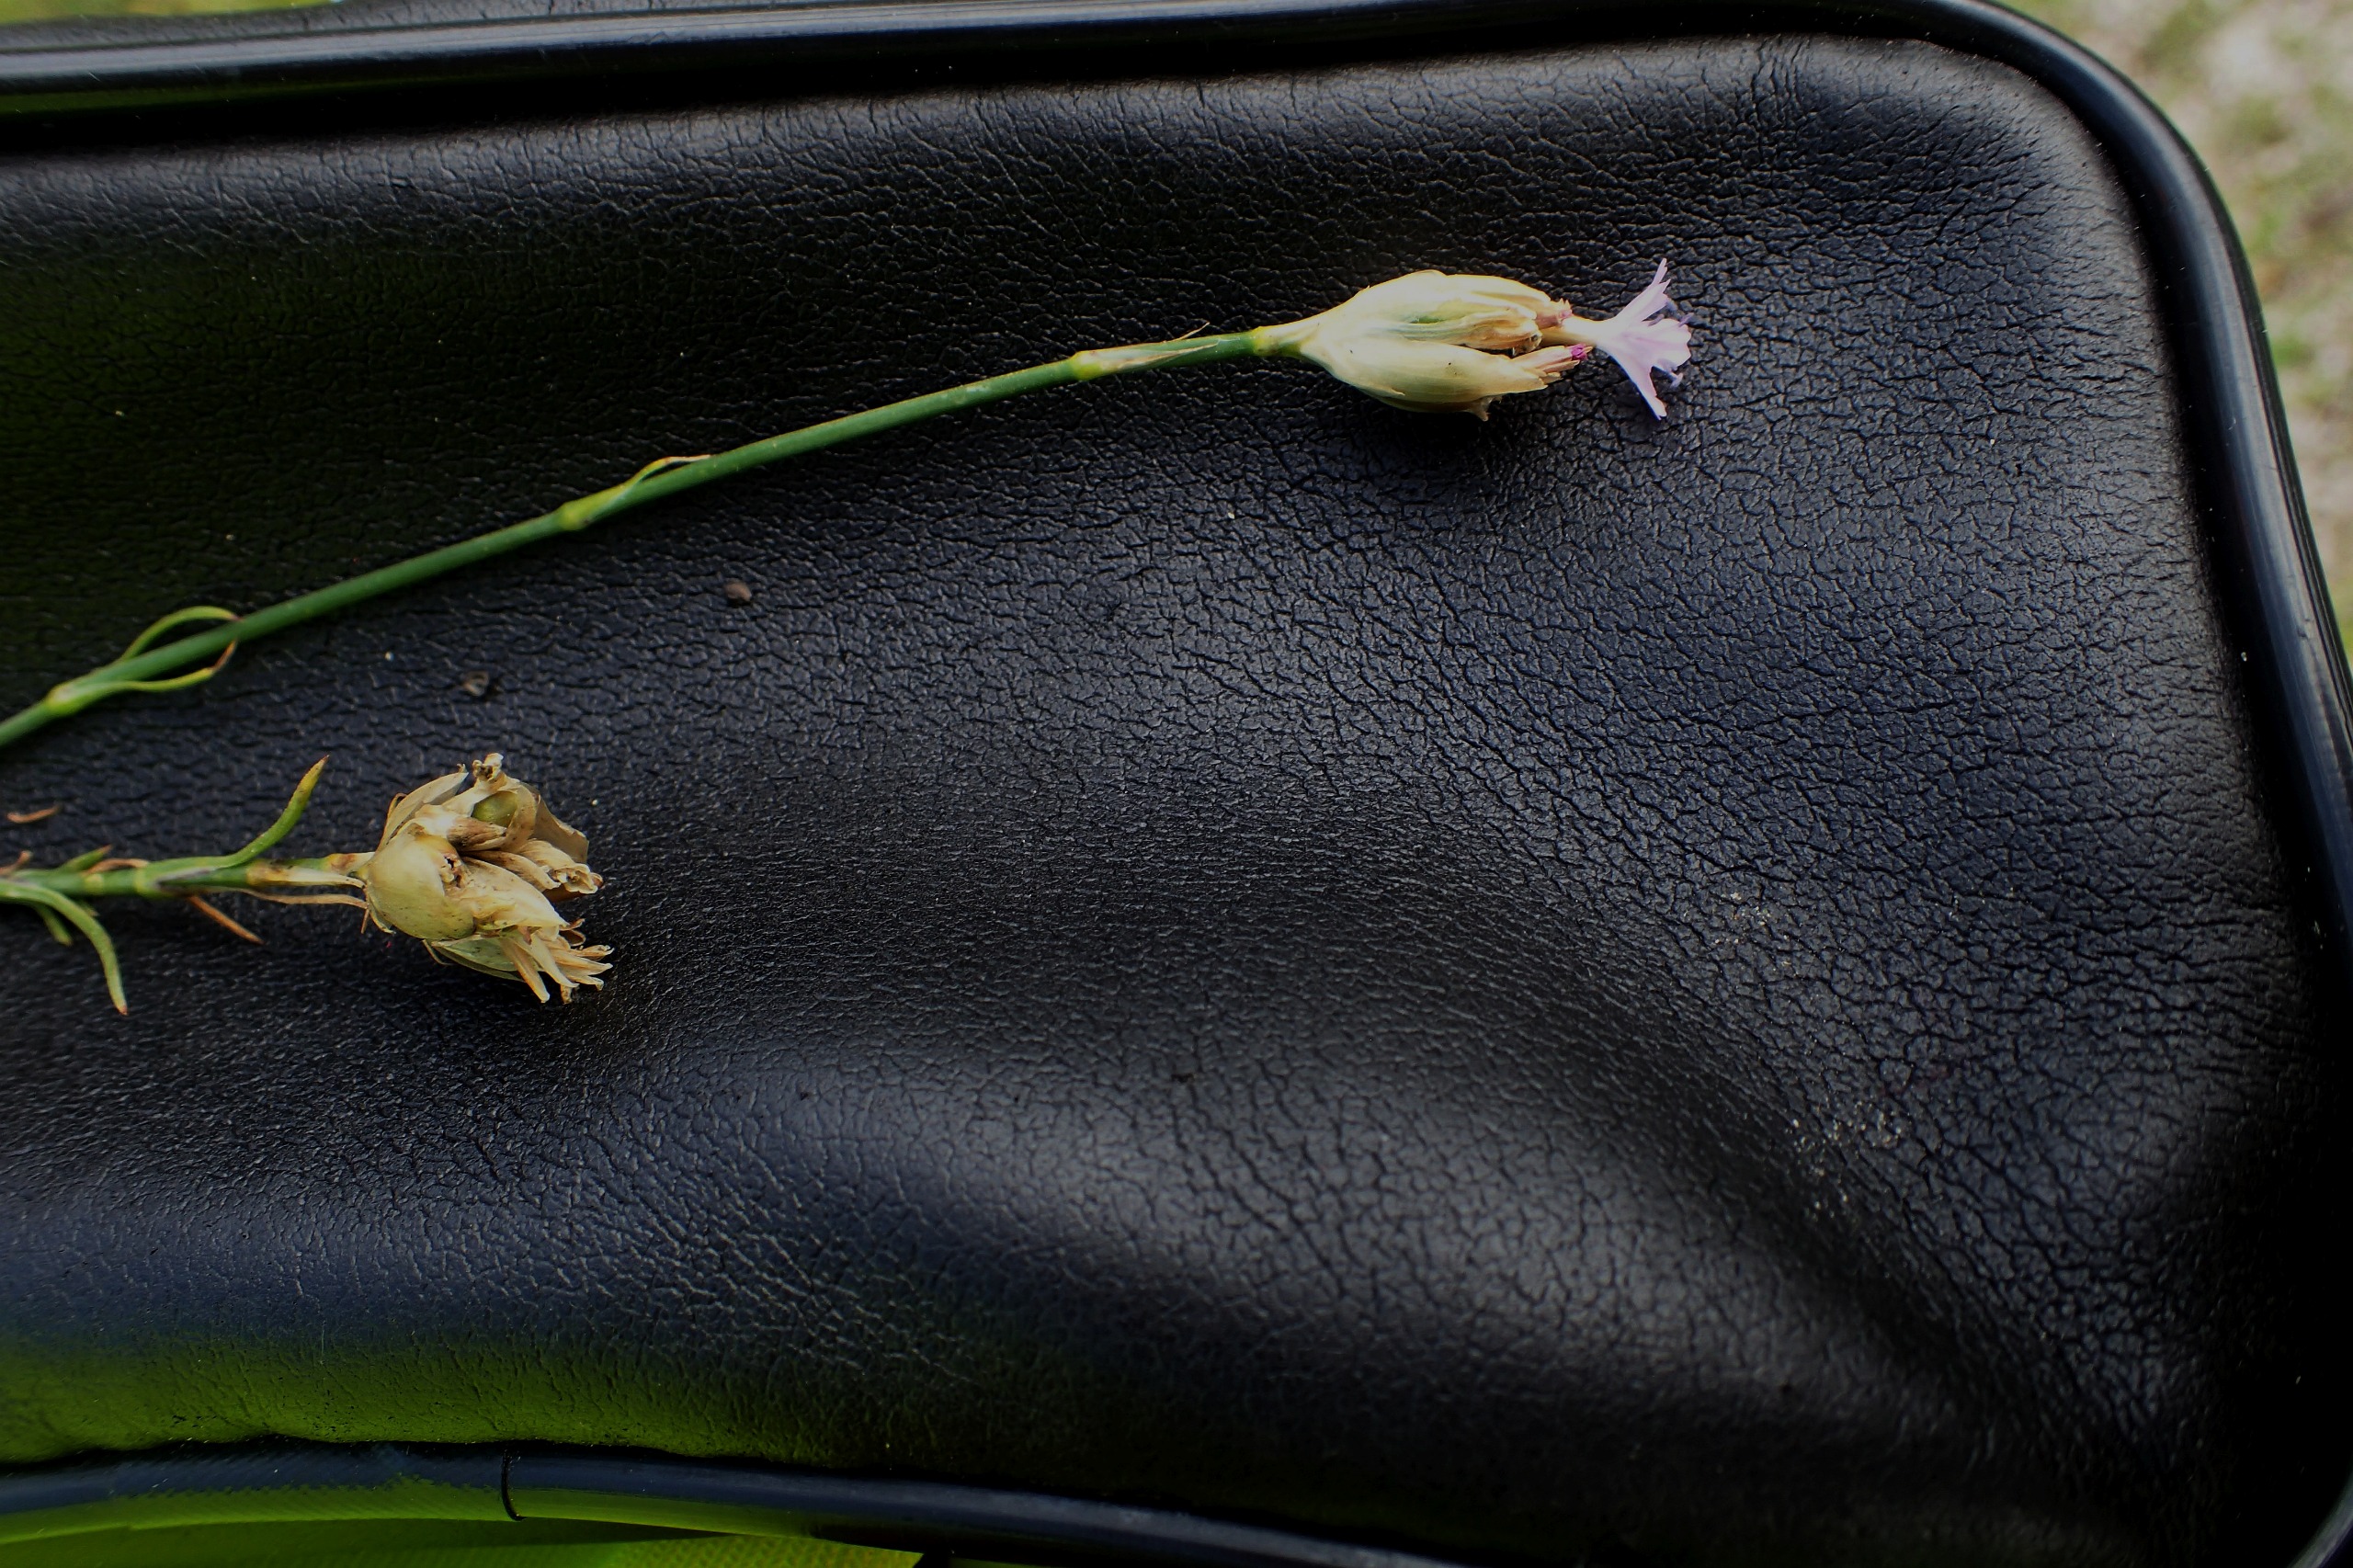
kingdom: Plantae
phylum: Tracheophyta
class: Magnoliopsida
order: Caryophyllales
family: Caryophyllaceae
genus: Petrorhagia
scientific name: Petrorhagia prolifera
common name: Knopnellike
